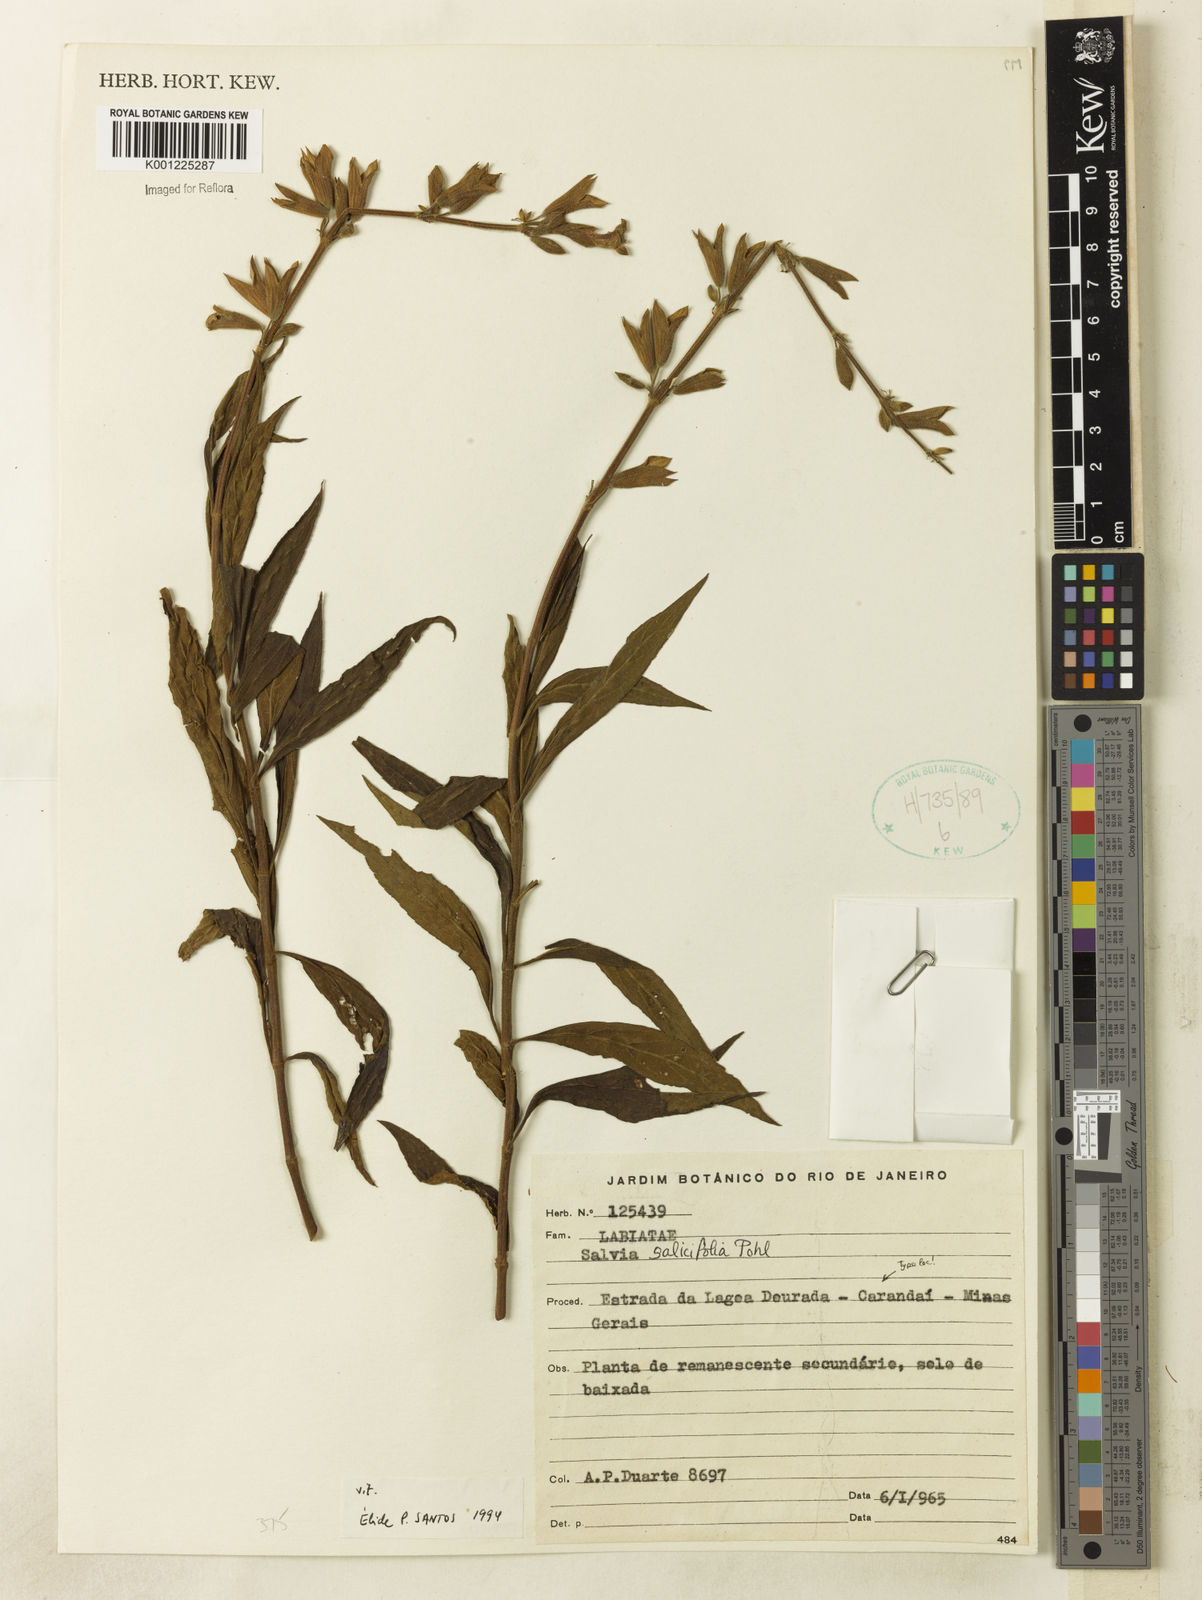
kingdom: Plantae
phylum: Tracheophyta
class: Magnoliopsida
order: Lamiales
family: Lamiaceae
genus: Salvia
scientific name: Salvia salicifolia
